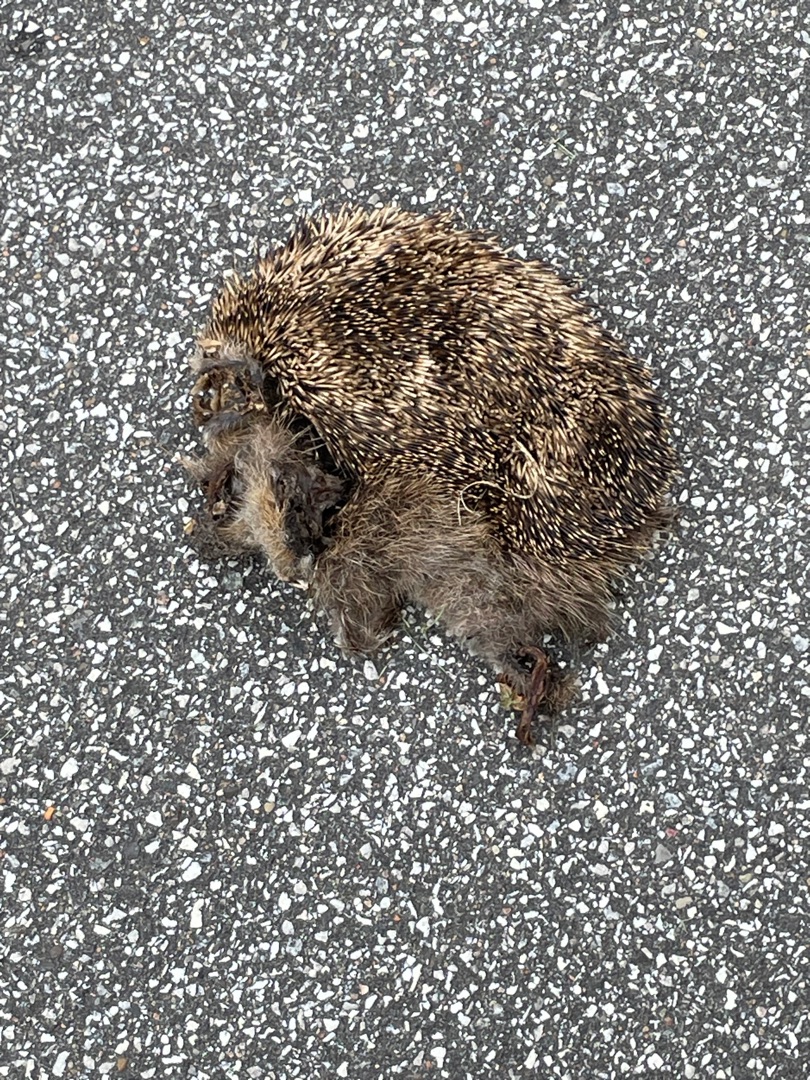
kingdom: Animalia
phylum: Chordata
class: Mammalia
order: Erinaceomorpha
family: Erinaceidae
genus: Erinaceus
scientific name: Erinaceus europaeus
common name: Pindsvin
